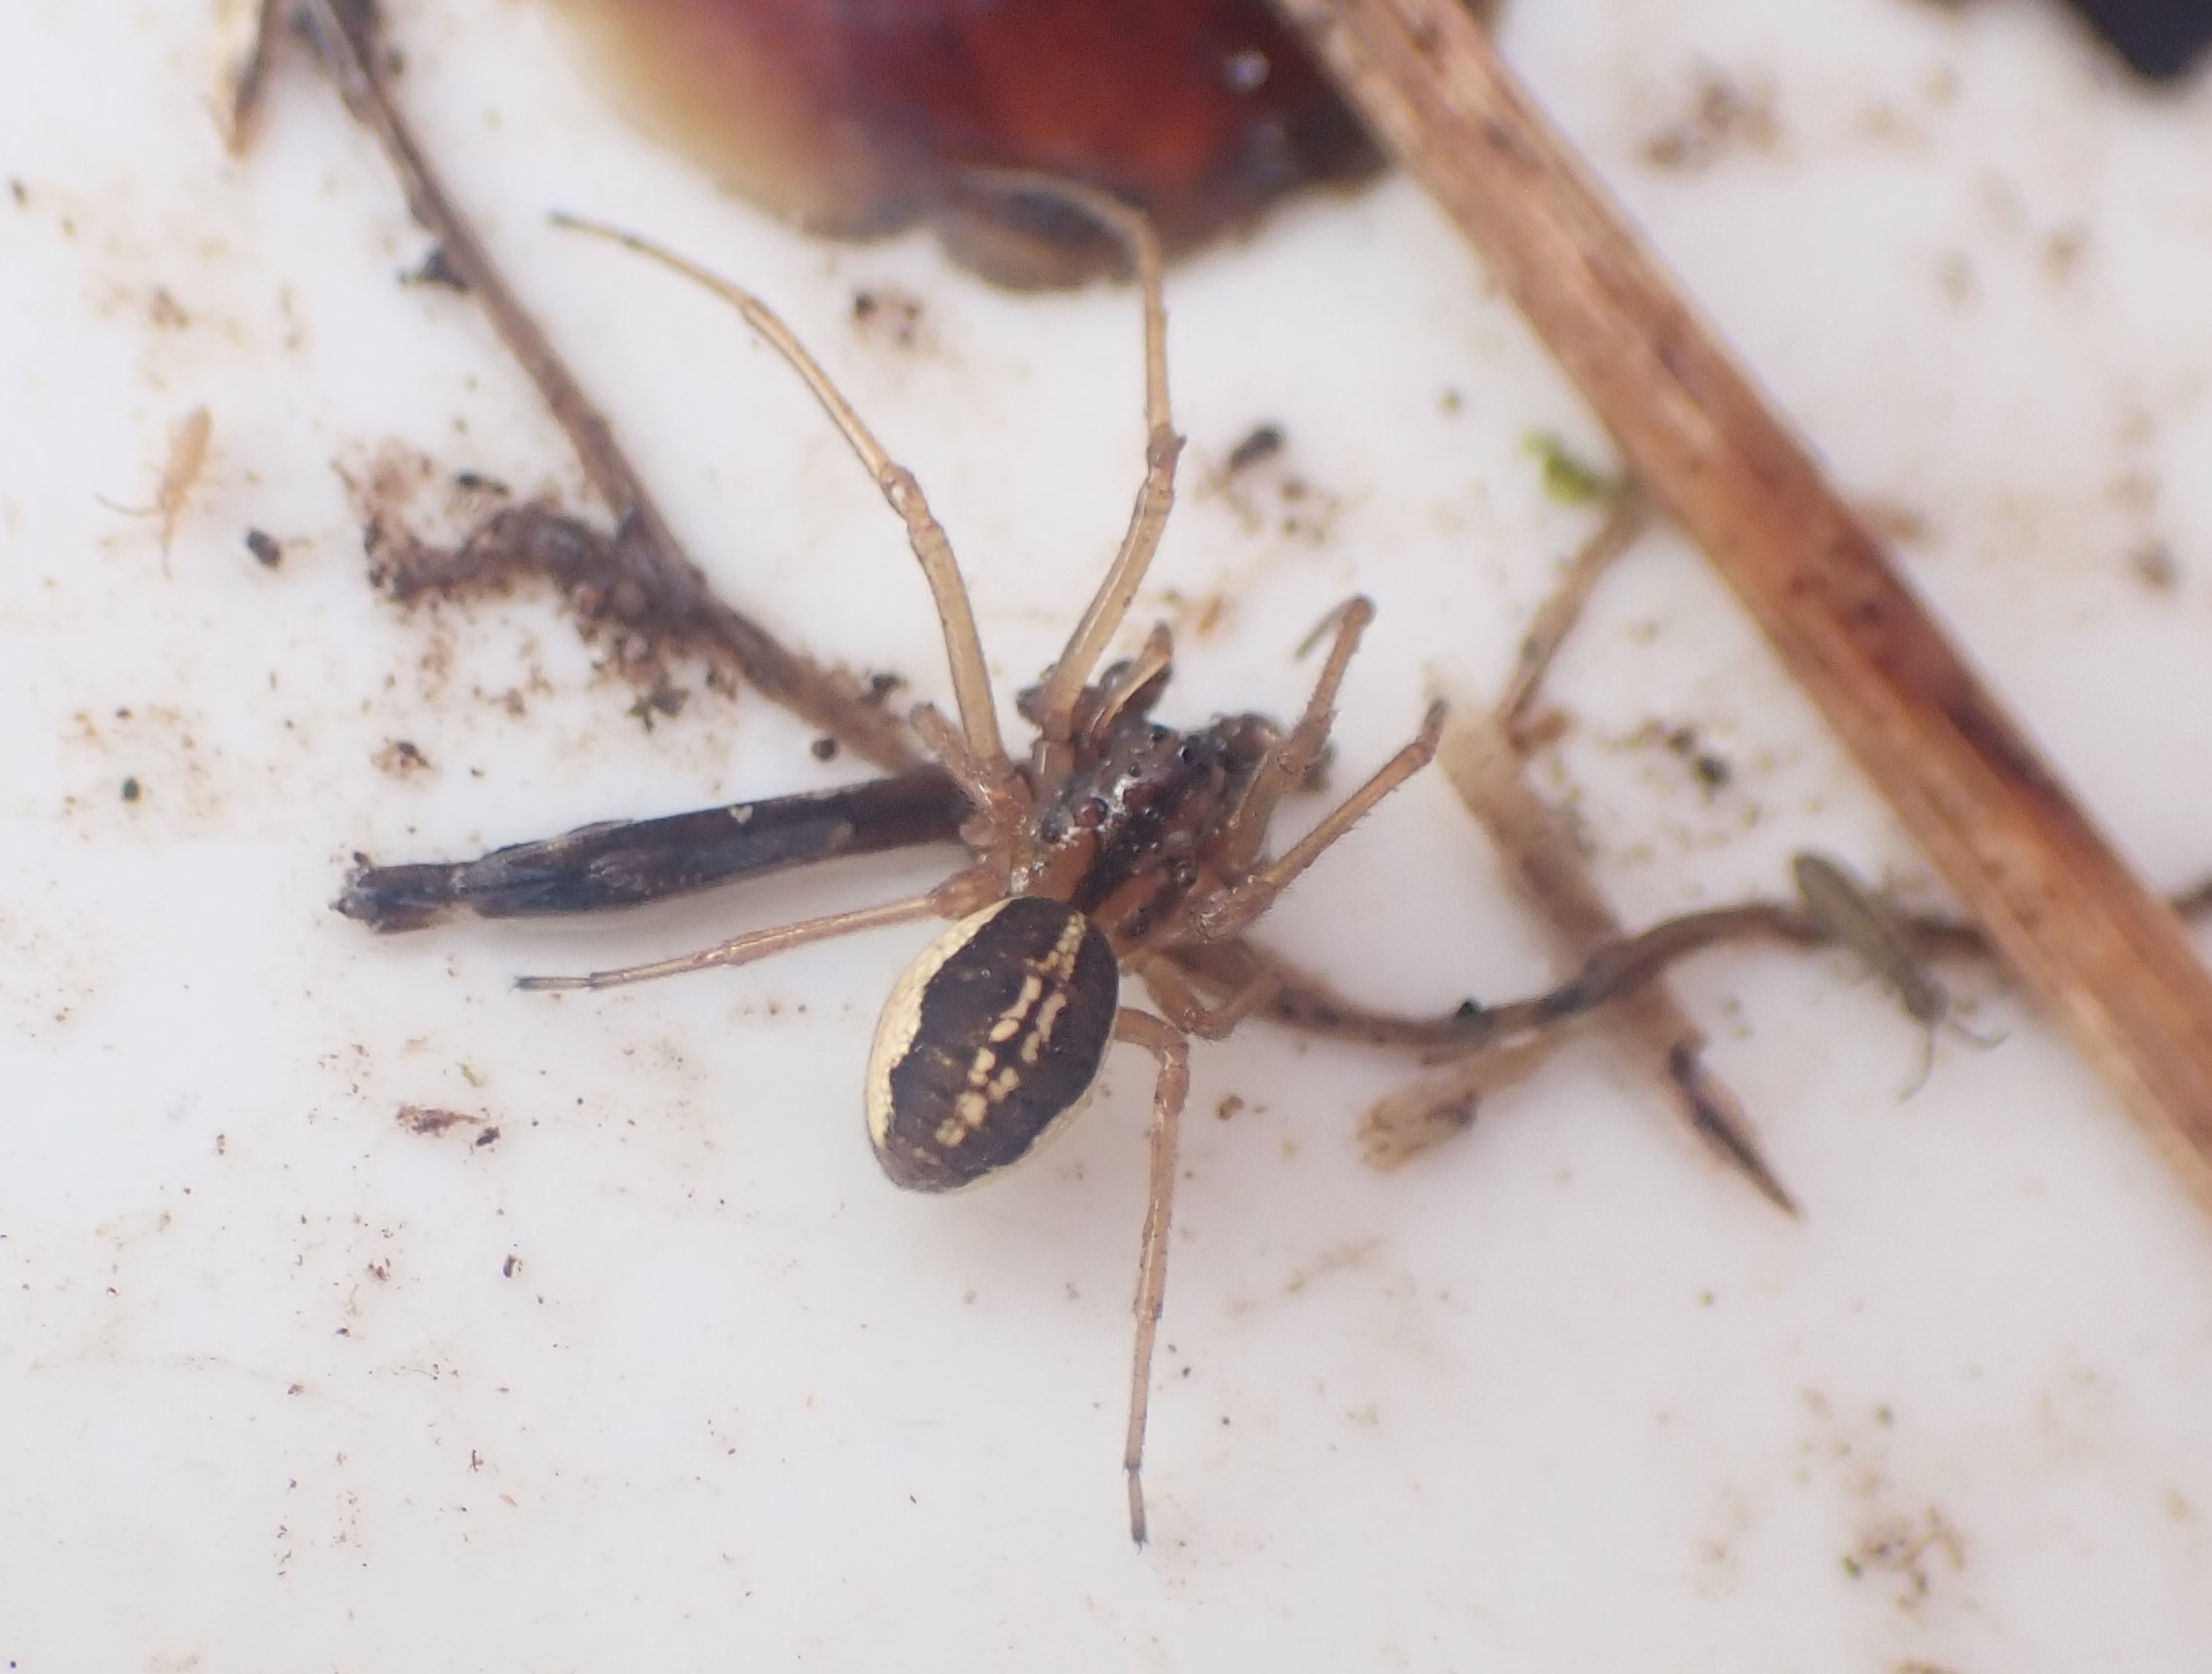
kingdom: Animalia
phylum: Arthropoda
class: Arachnida
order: Araneae
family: Tetragnathidae
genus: Pachygnatha
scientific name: Pachygnatha clercki
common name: Søtykkæbe
